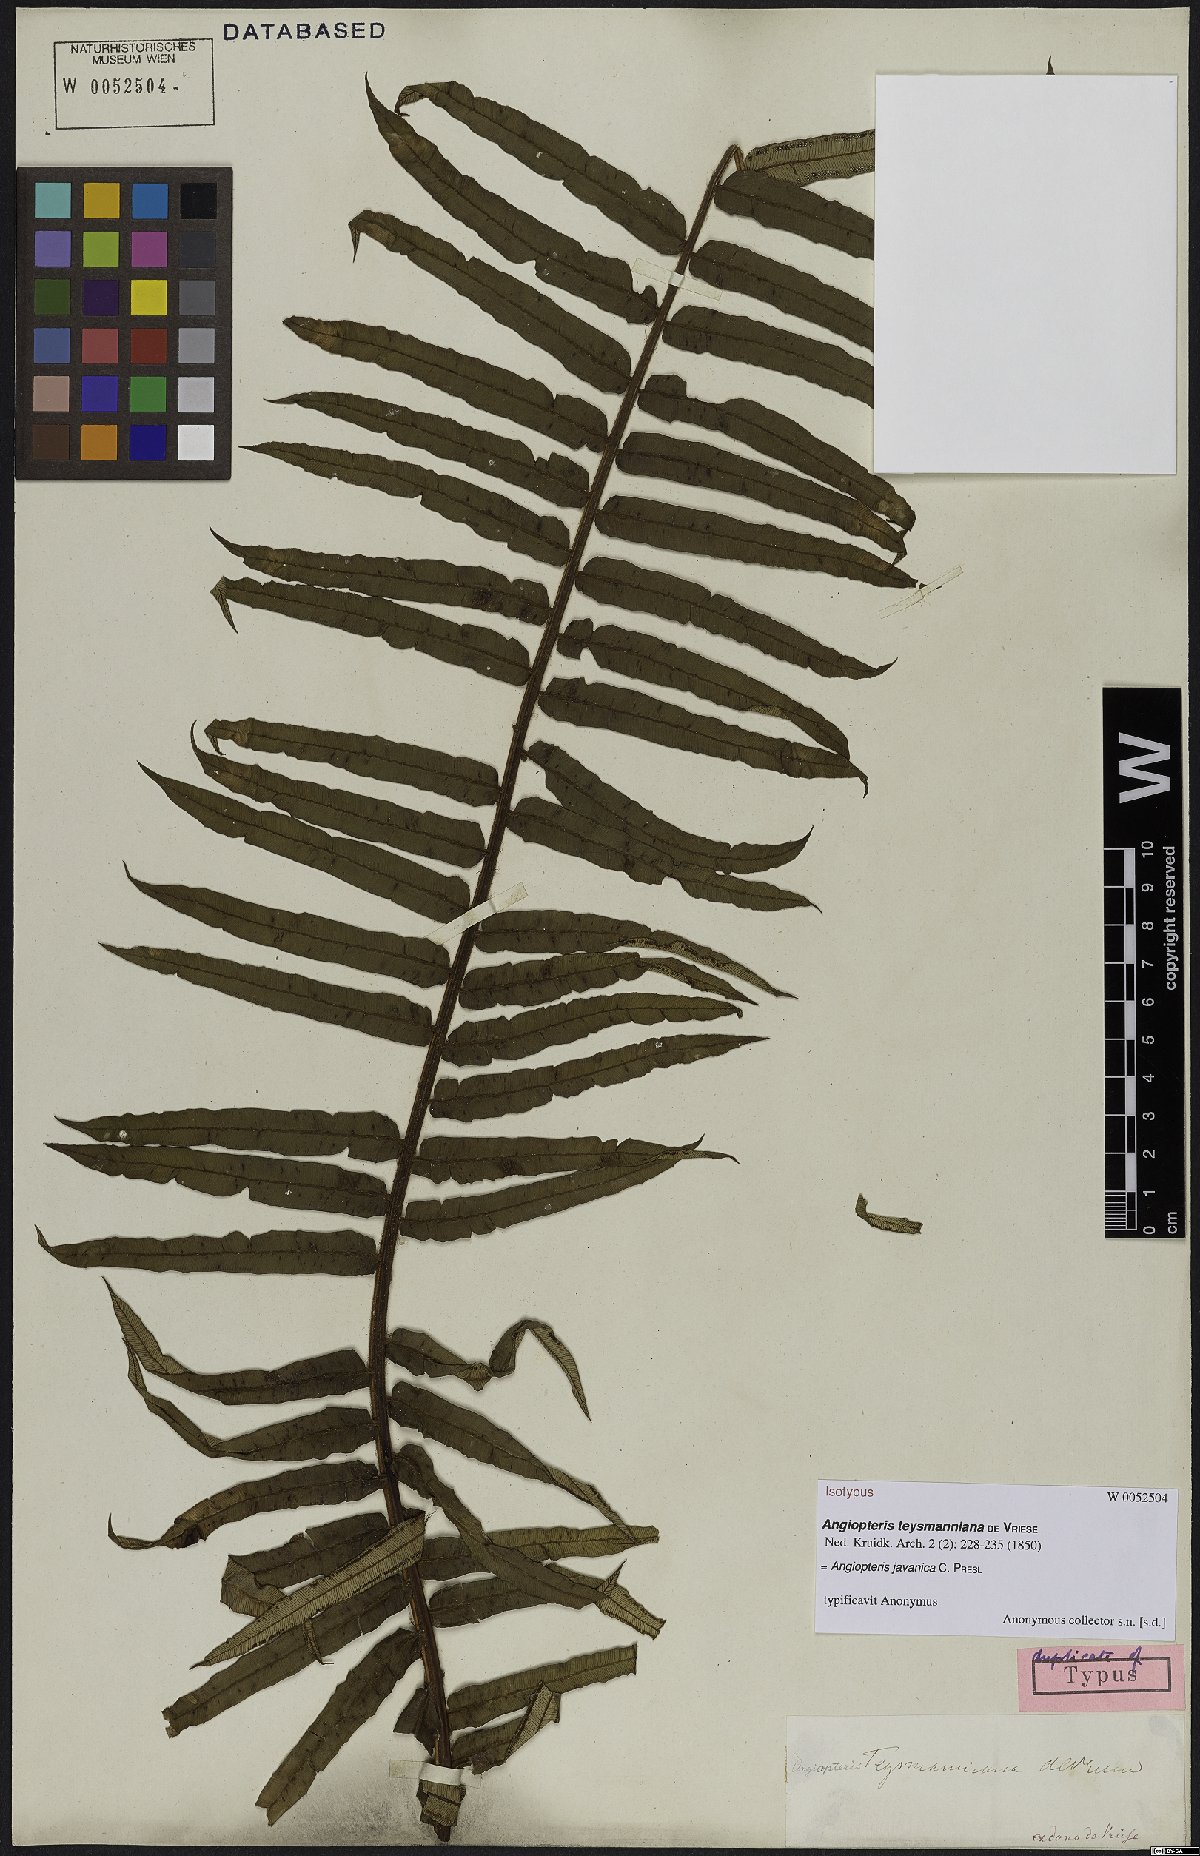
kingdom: Plantae
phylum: Tracheophyta
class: Polypodiopsida
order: Marattiales
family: Marattiaceae
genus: Angiopteris
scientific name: Angiopteris javanica
